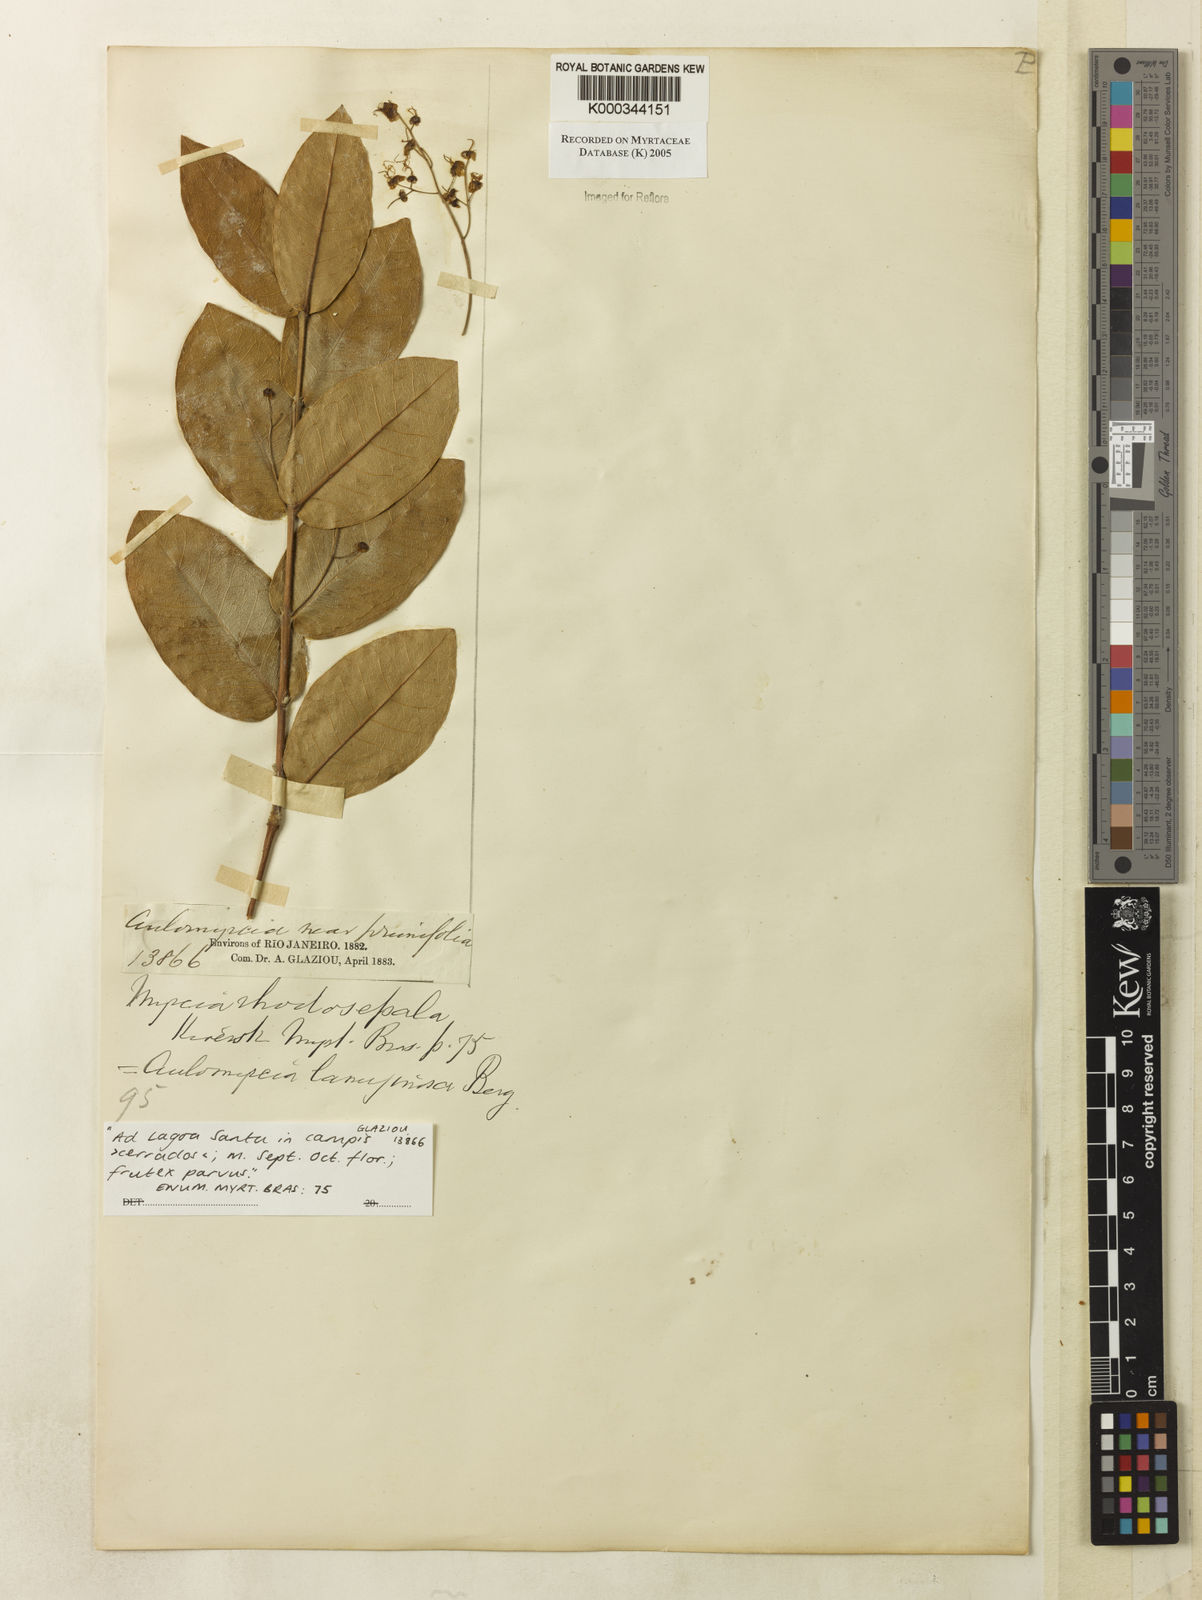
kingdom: Plantae
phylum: Tracheophyta
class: Magnoliopsida
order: Myrtales
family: Myrtaceae
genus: Myrcia
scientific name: Myrcia tomentosa
